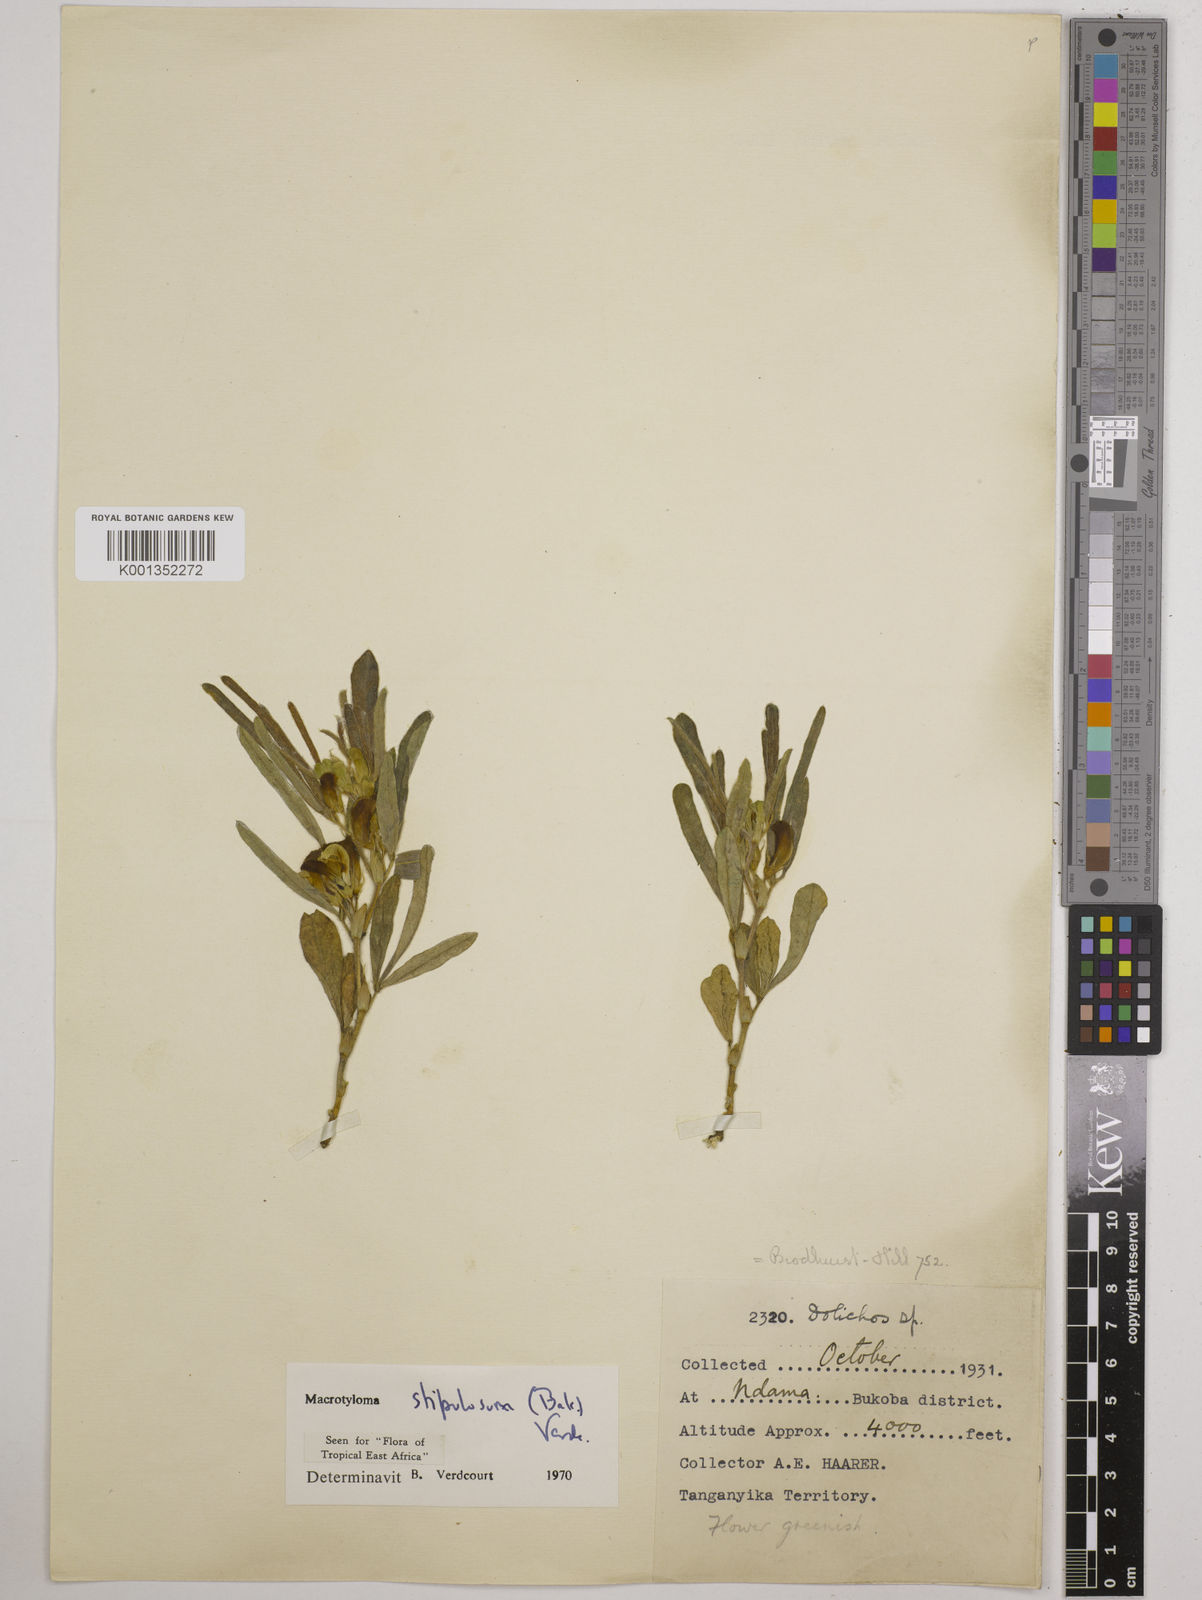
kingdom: Plantae
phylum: Tracheophyta
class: Magnoliopsida
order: Fabales
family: Fabaceae
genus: Macrotyloma
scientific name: Macrotyloma stipulosum
